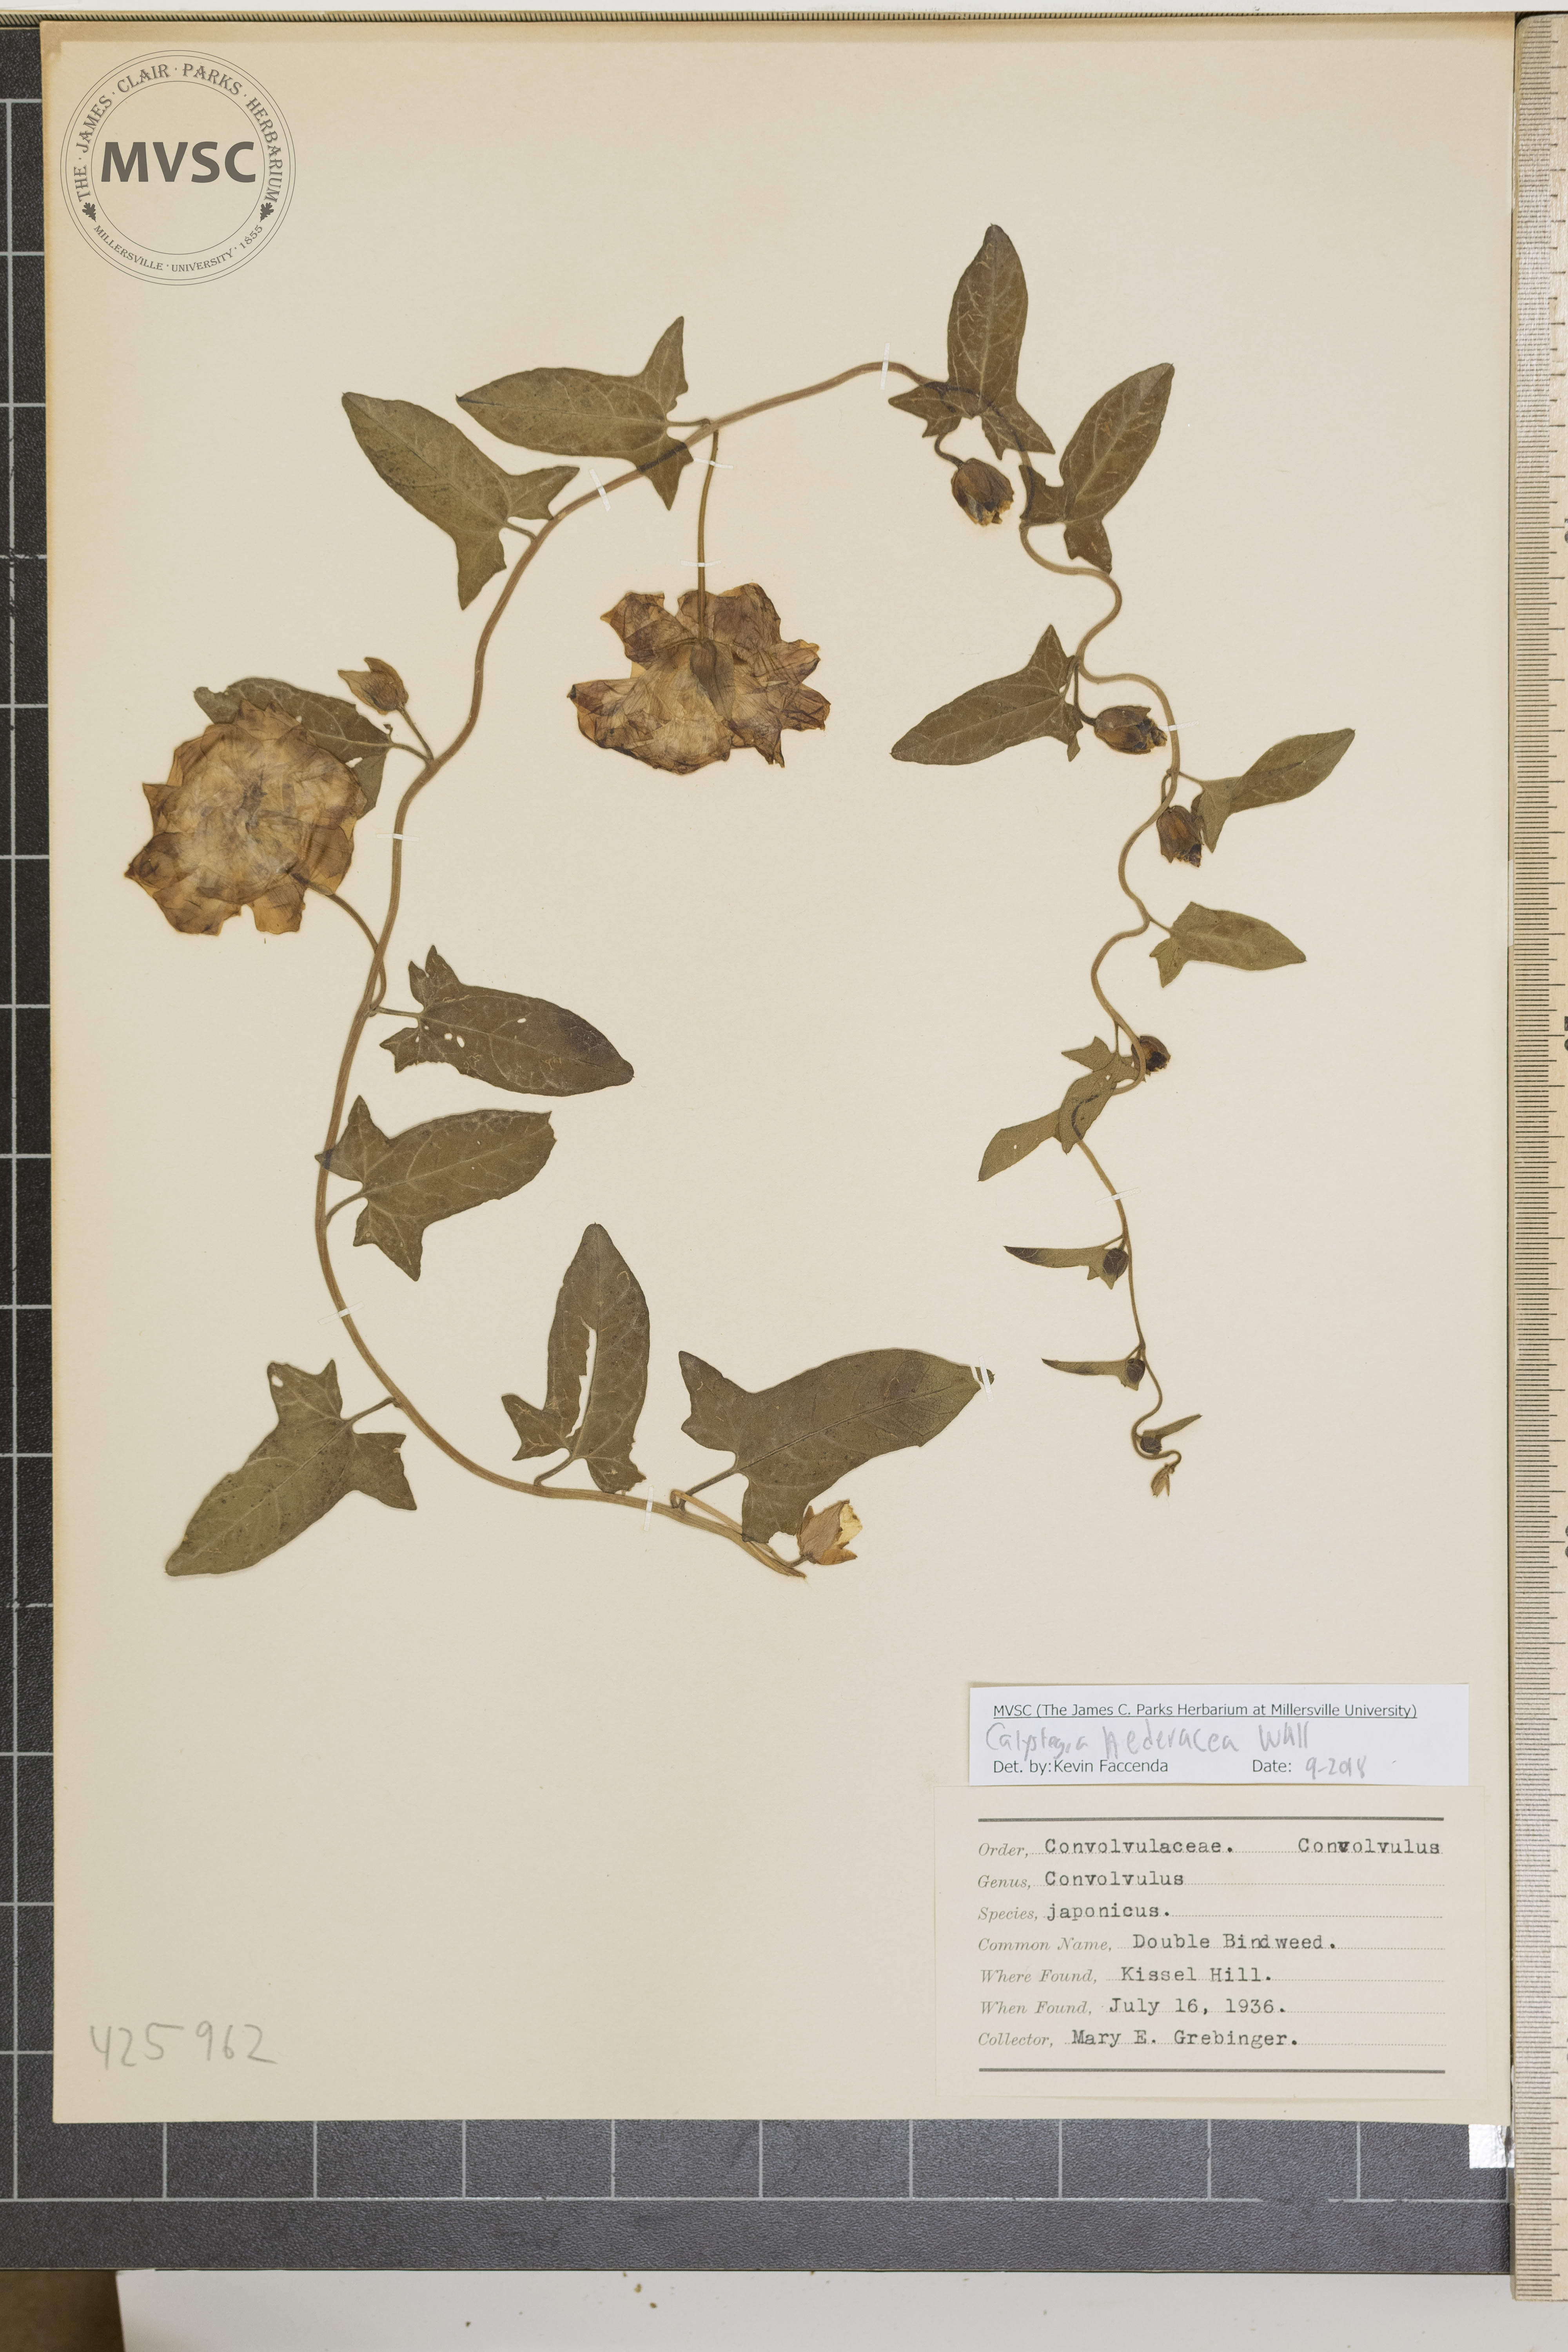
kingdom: Plantae
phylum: Tracheophyta
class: Magnoliopsida
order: Solanales
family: Convolvulaceae
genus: Calystegia
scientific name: Calystegia hederacea
